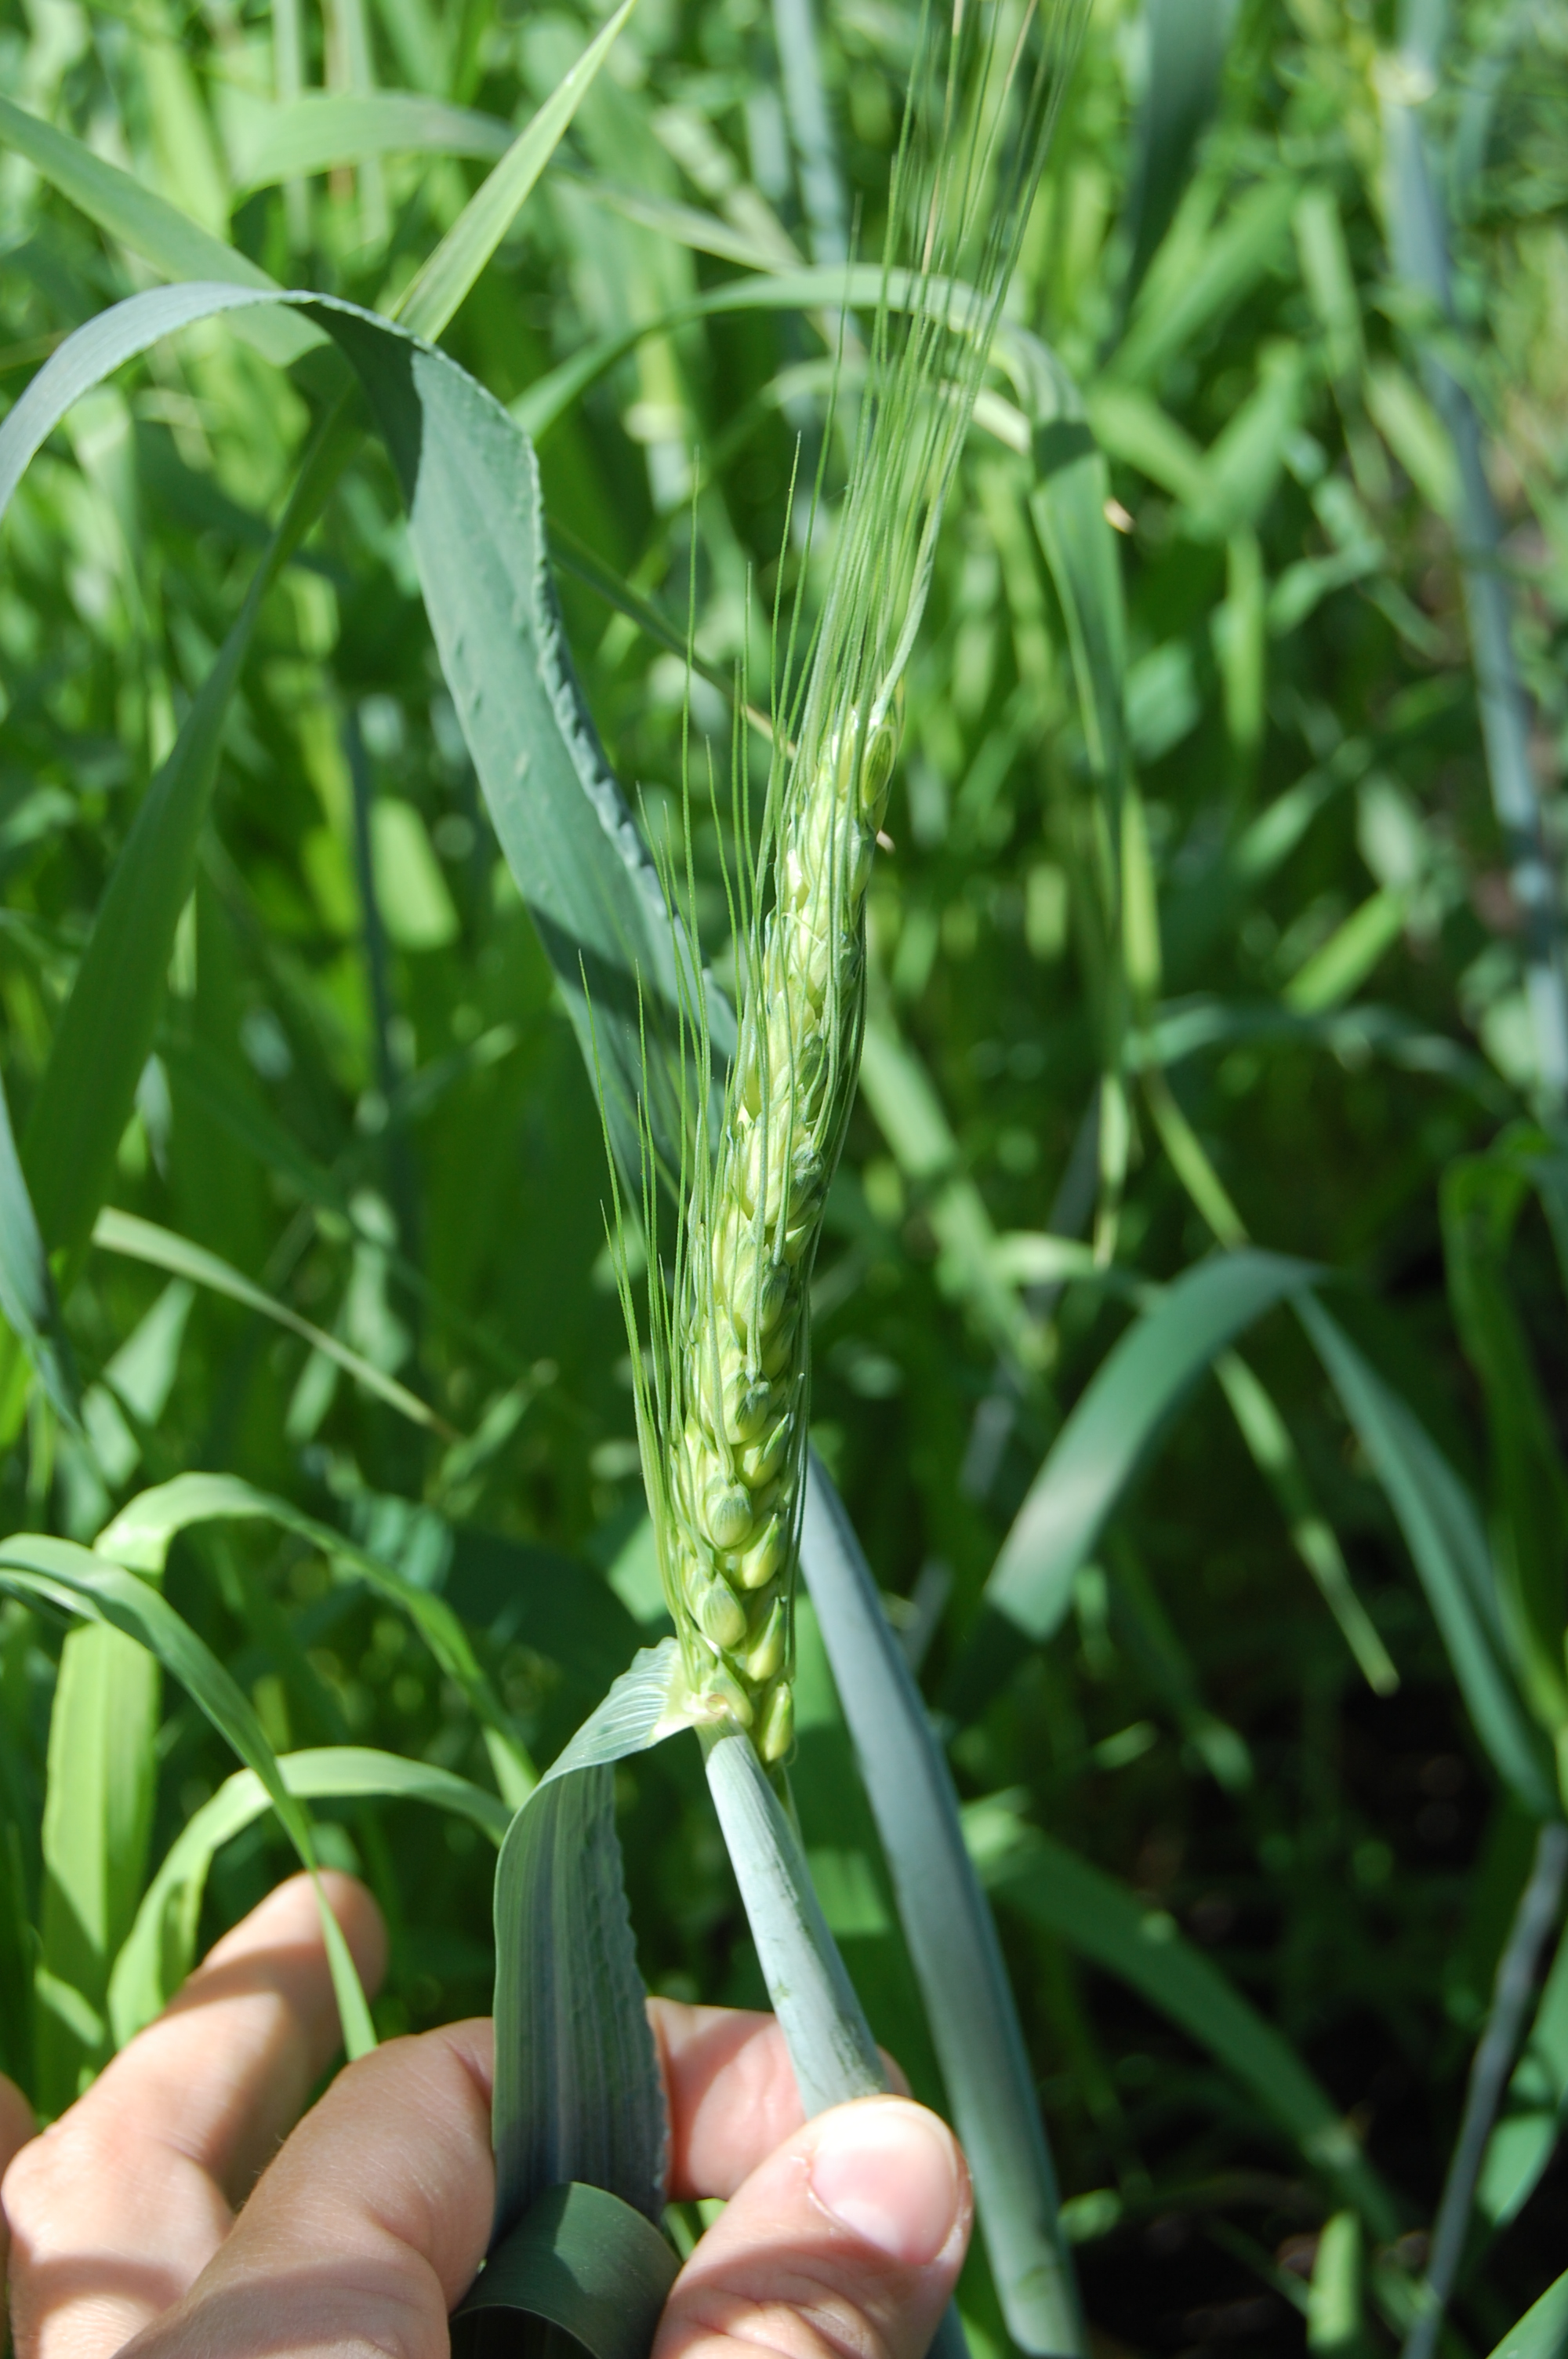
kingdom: Plantae
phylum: Tracheophyta
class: Liliopsida
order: Poales
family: Poaceae
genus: Triticum
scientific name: Triticum aestivum
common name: Common wheat
